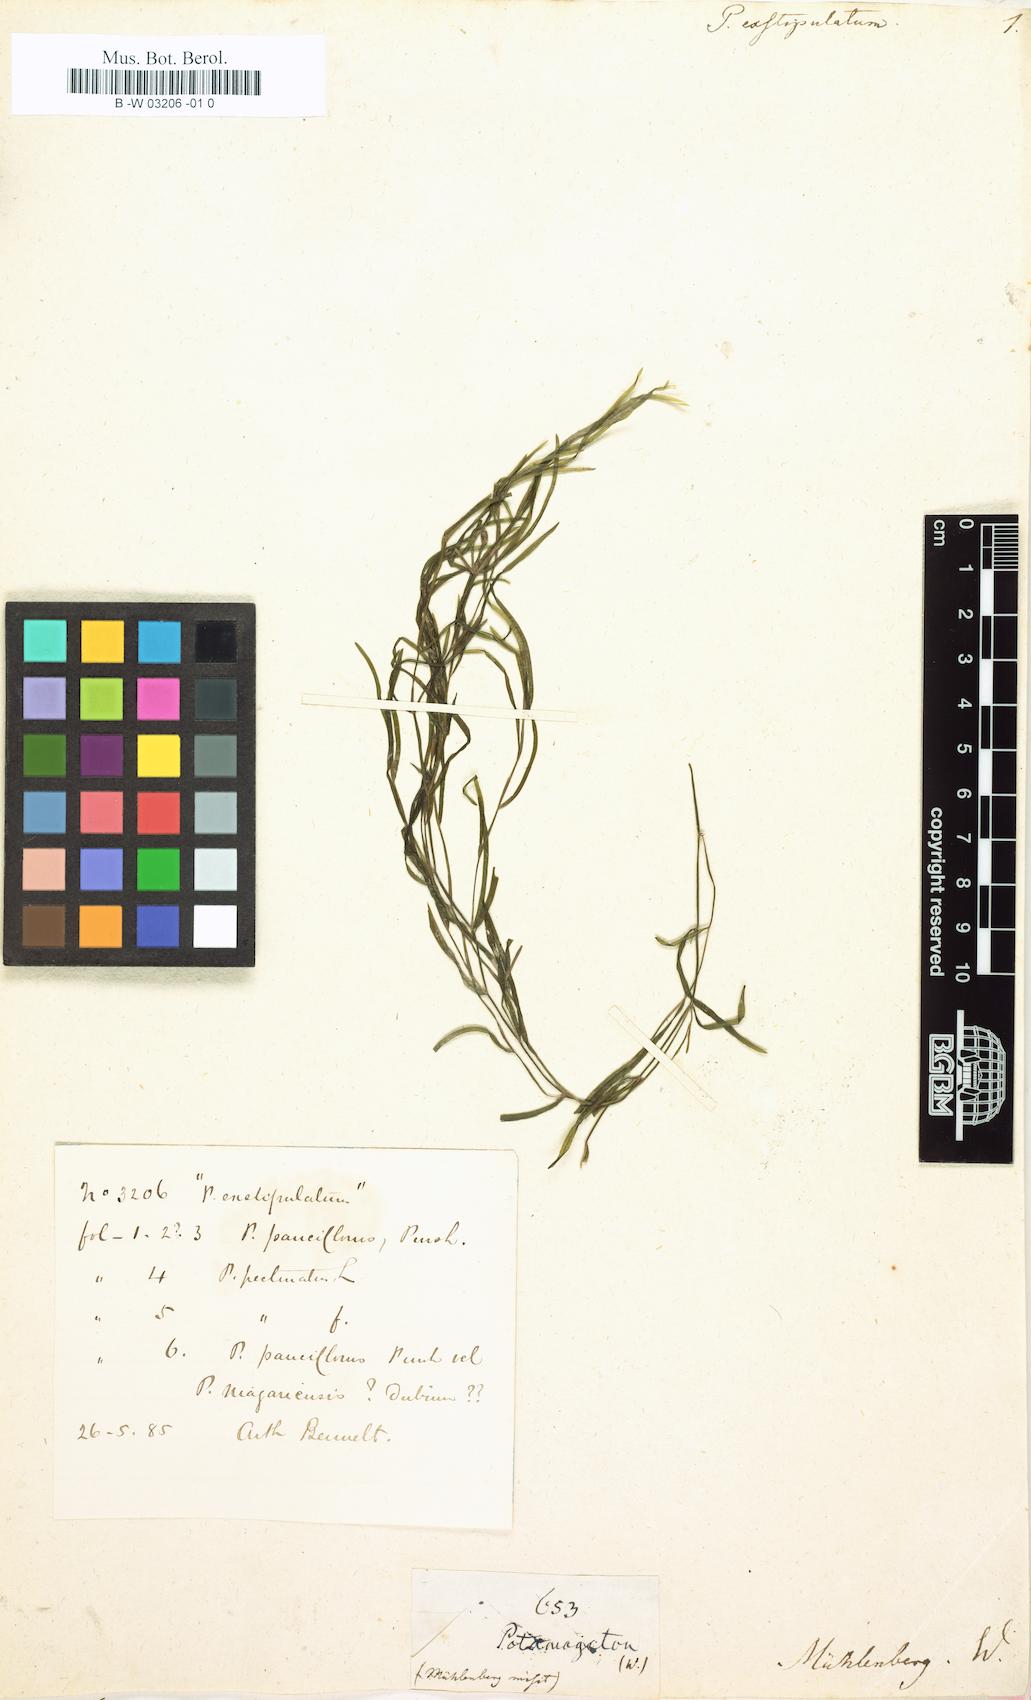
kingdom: Plantae
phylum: Tracheophyta
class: Liliopsida
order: Alismatales
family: Potamogetonaceae
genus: Potamogeton
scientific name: Potamogeton exstipulatus
